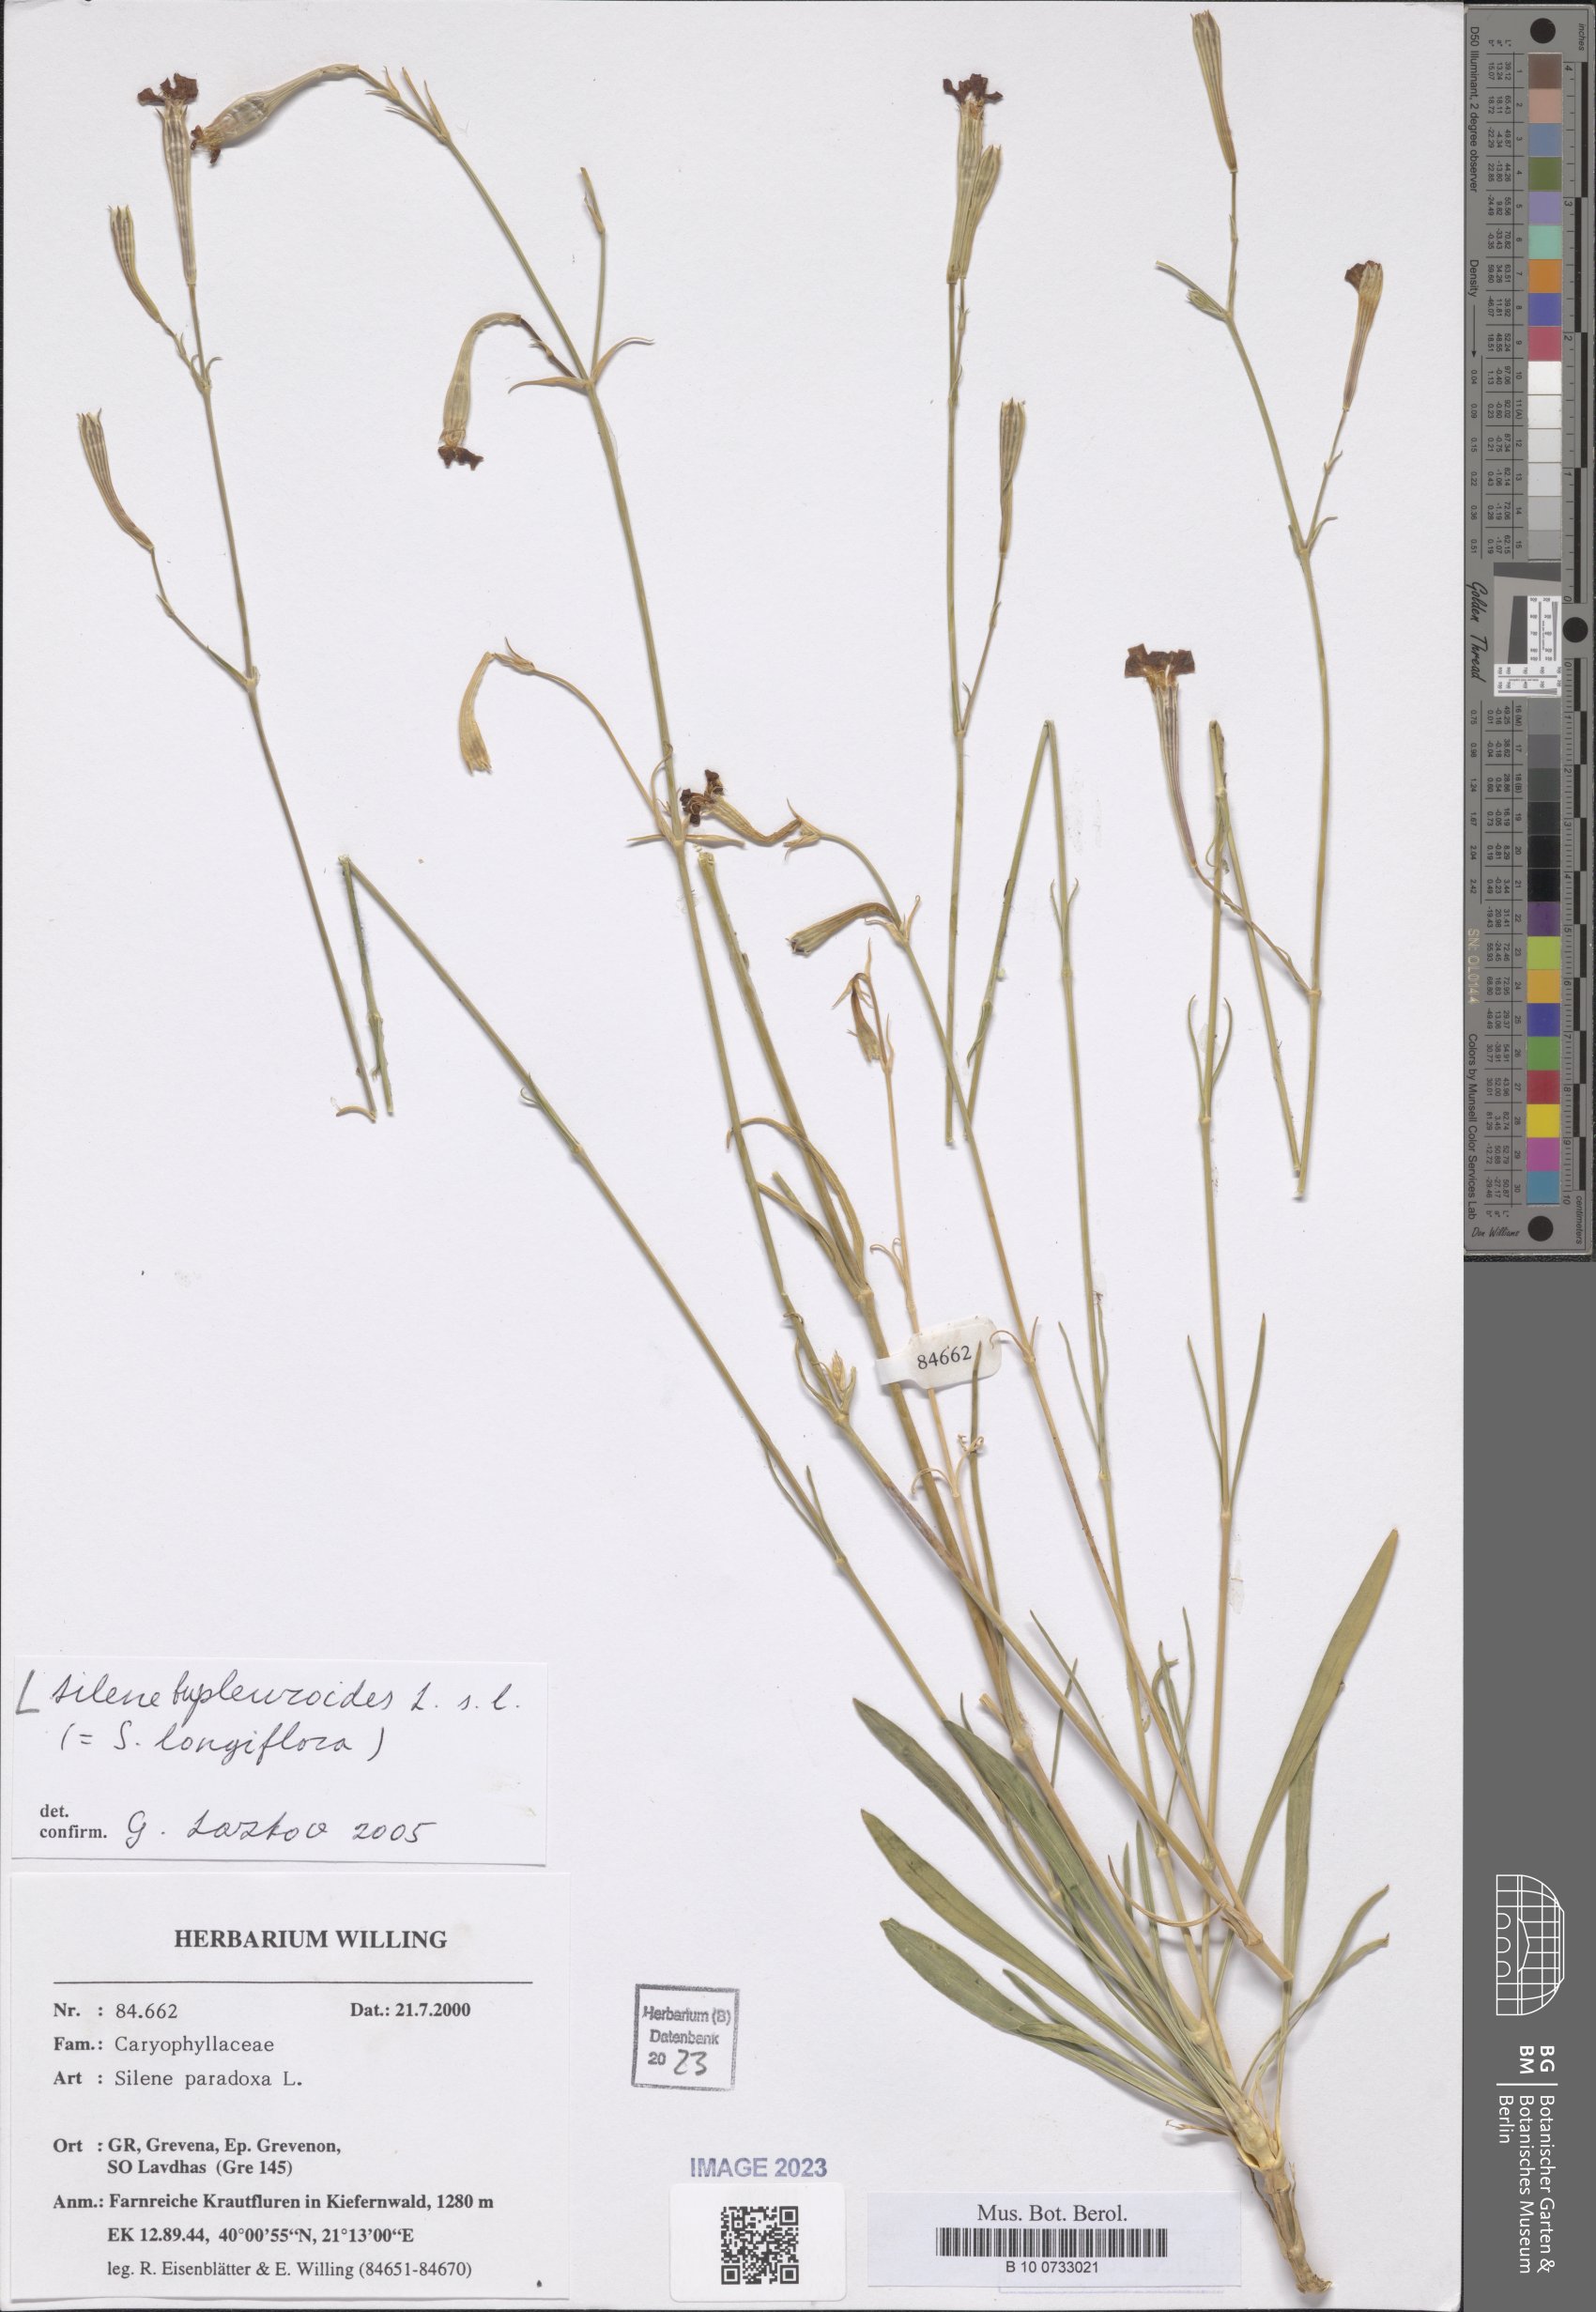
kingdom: Plantae
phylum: Tracheophyta
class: Magnoliopsida
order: Caryophyllales
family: Caryophyllaceae
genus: Silene
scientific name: Silene bupleuroides
